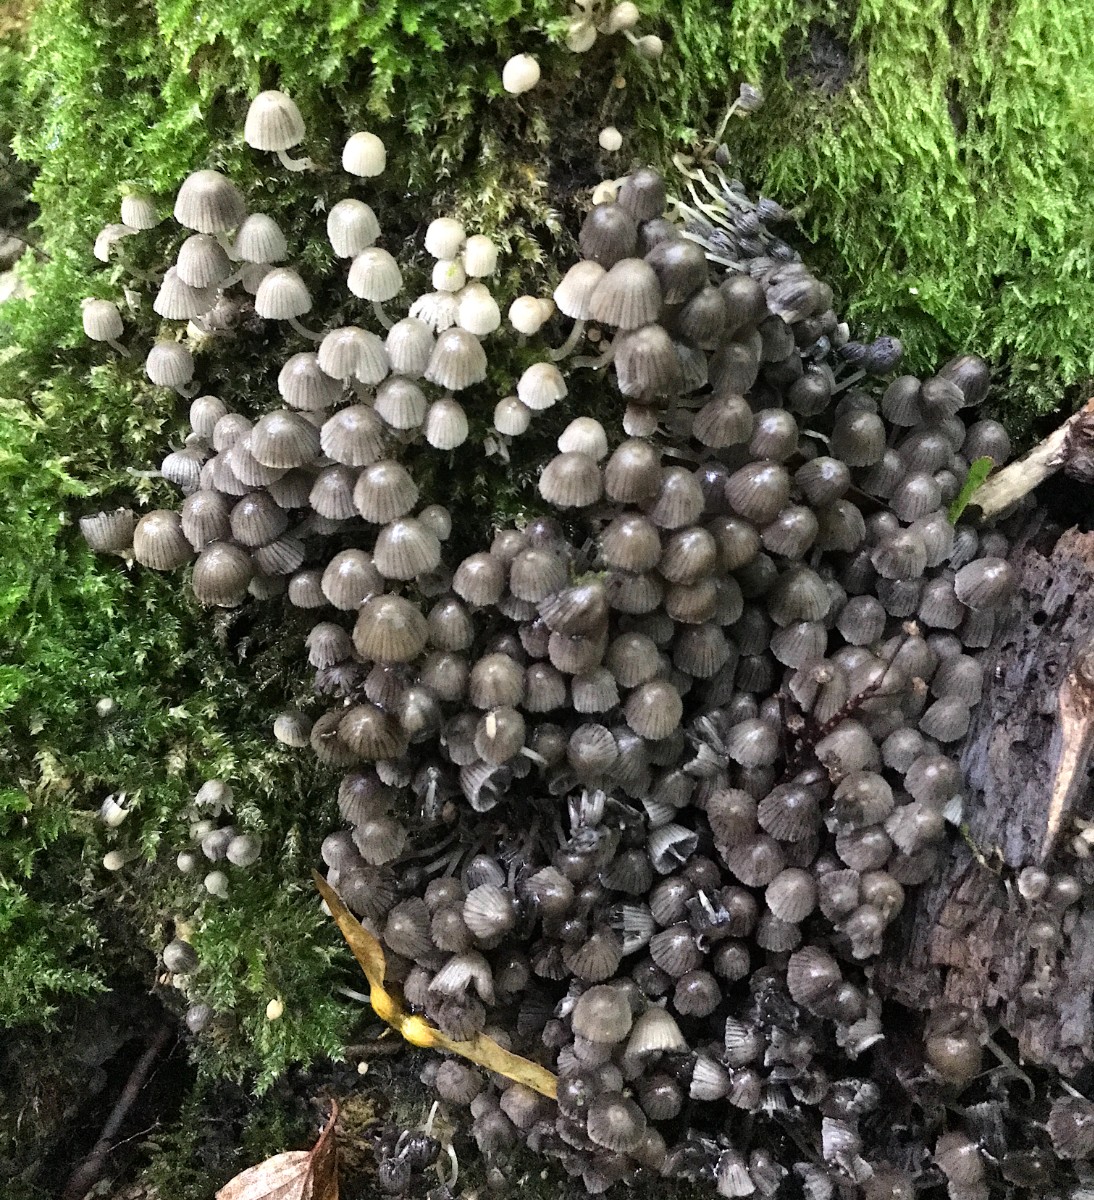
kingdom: Fungi
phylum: Basidiomycota
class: Agaricomycetes
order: Agaricales
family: Psathyrellaceae
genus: Coprinellus
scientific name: Coprinellus disseminatus
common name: bredsået blækhat
